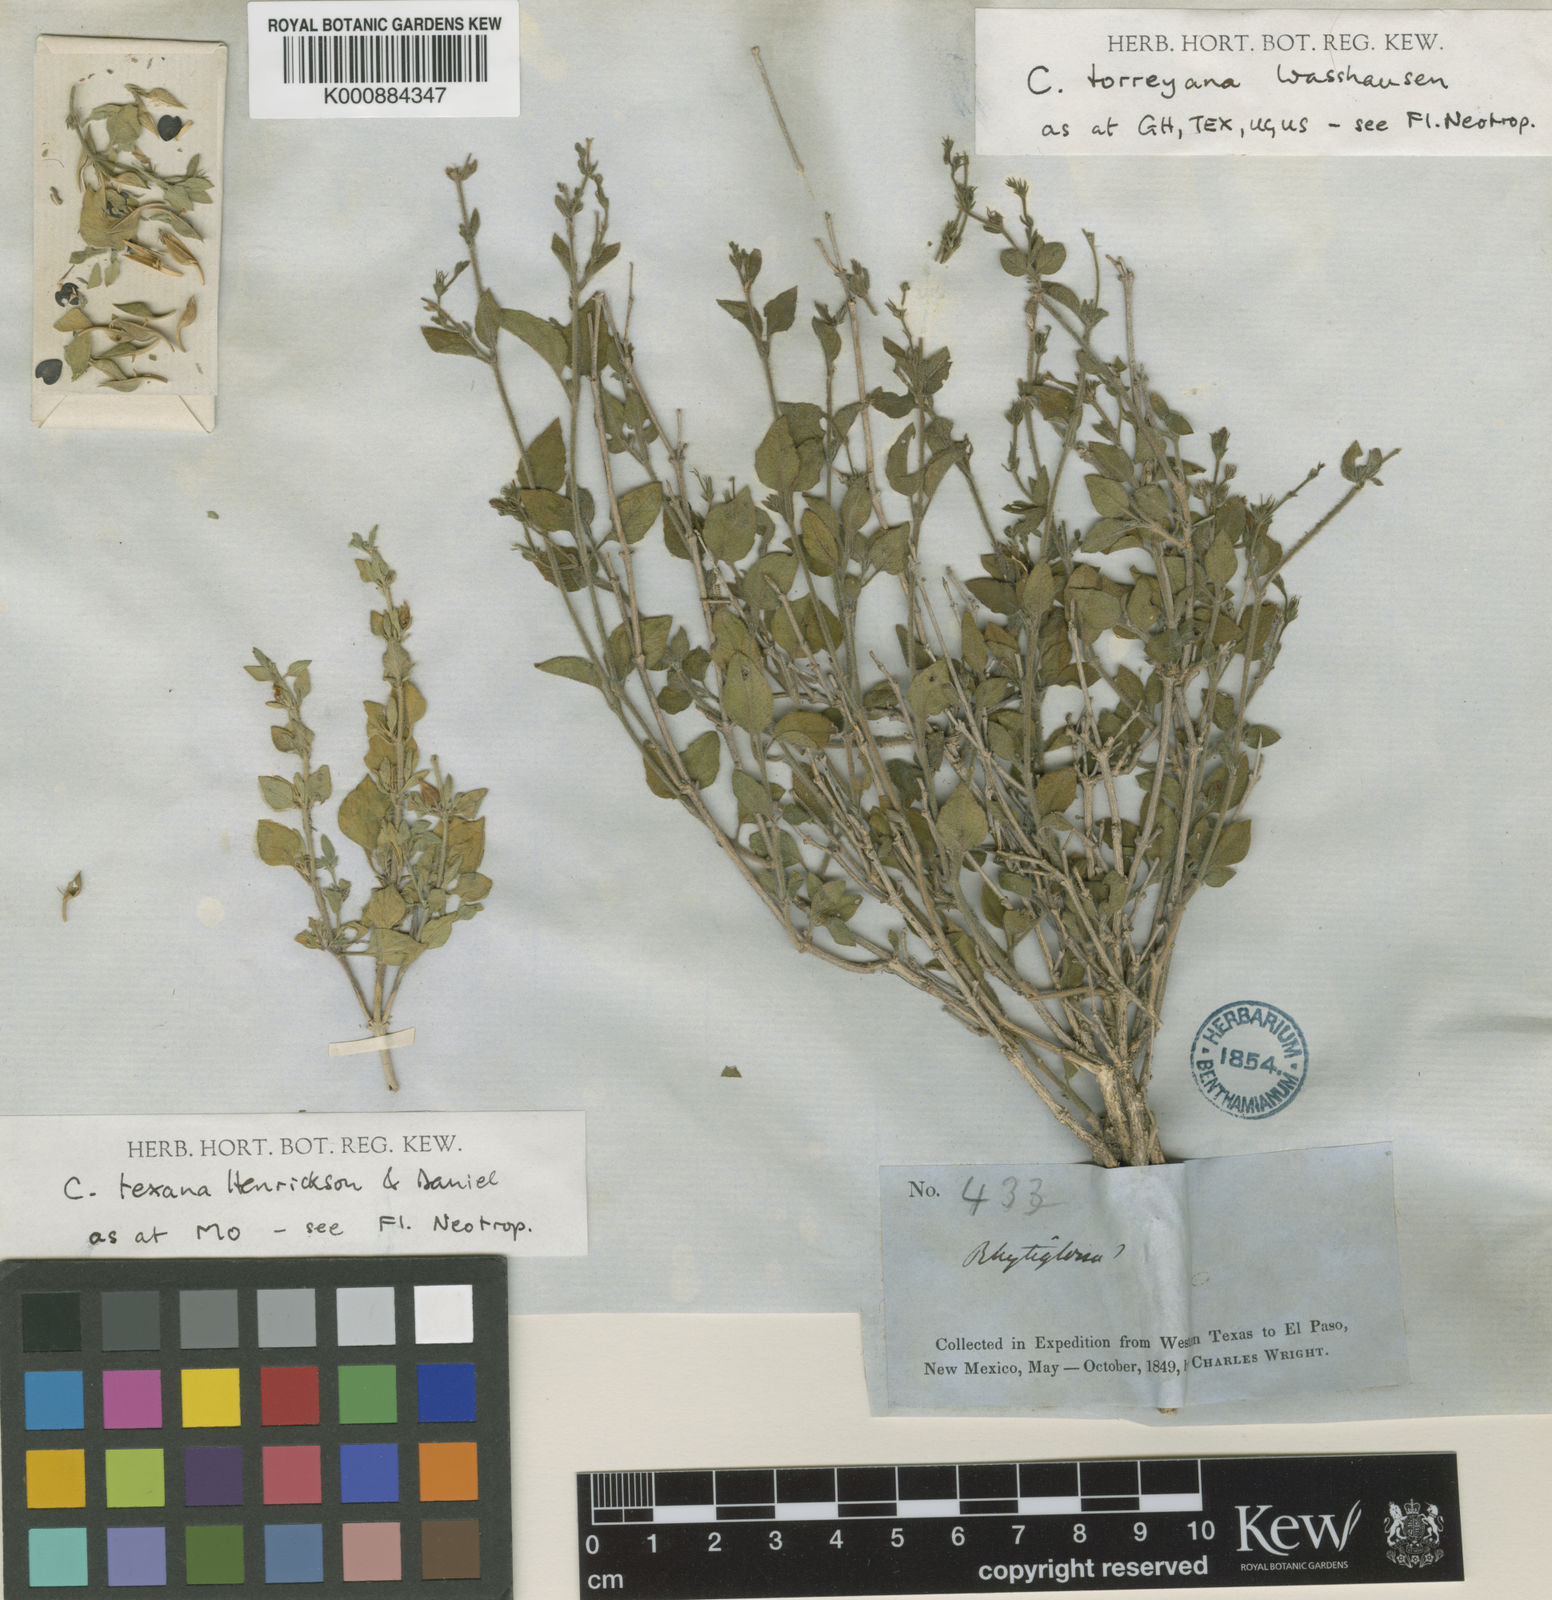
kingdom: Plantae
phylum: Tracheophyta
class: Magnoliopsida
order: Lamiales
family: Acanthaceae
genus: Carlowrightia
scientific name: Carlowrightia torreyana
